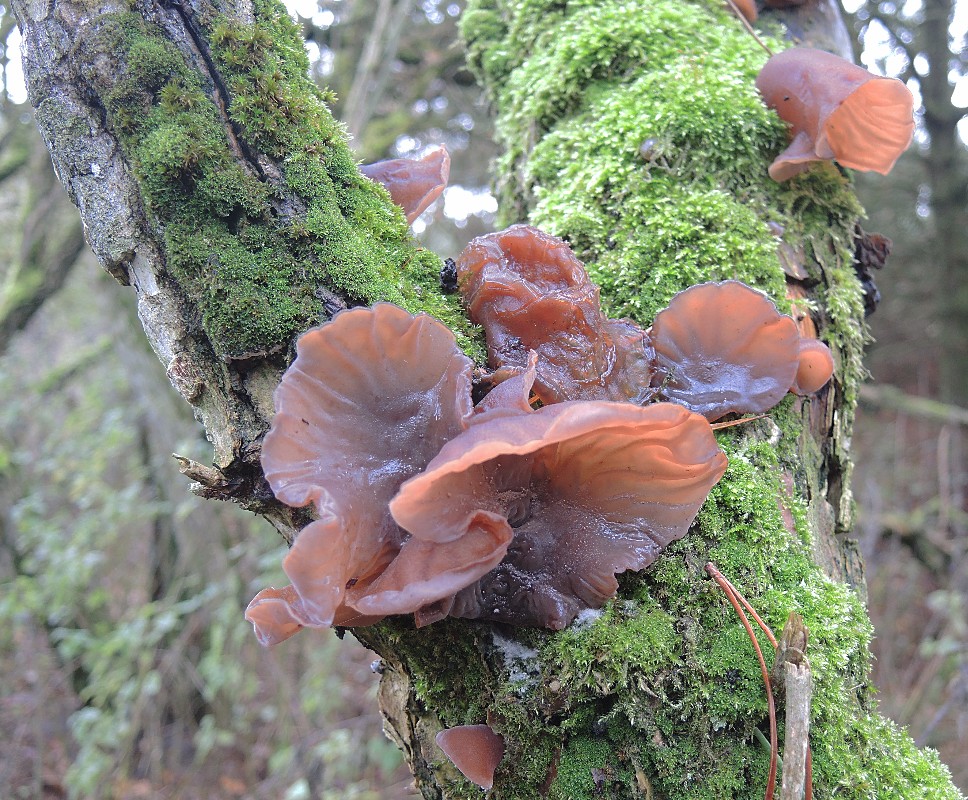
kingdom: Fungi
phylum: Basidiomycota
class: Agaricomycetes
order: Auriculariales
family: Auriculariaceae
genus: Auricularia
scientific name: Auricularia auricula-judae
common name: almindelig judasøre
